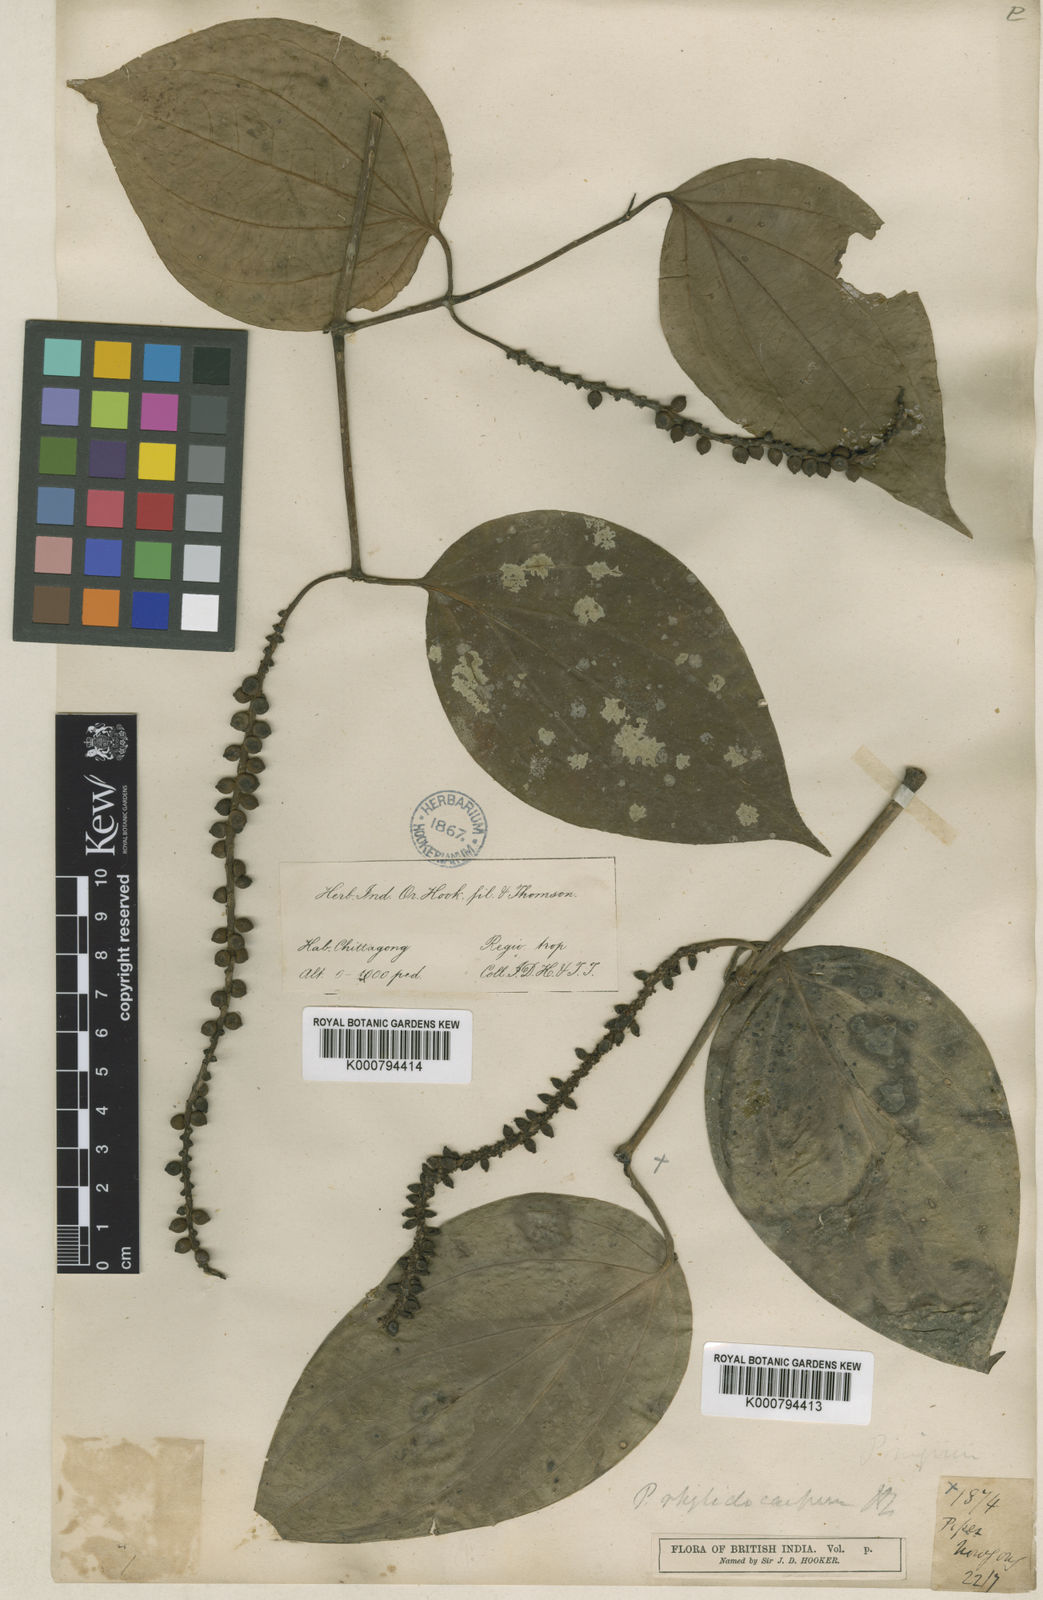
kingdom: Plantae
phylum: Tracheophyta
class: Magnoliopsida
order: Piperales
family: Piperaceae
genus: Piper
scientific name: Piper leptostachyum
